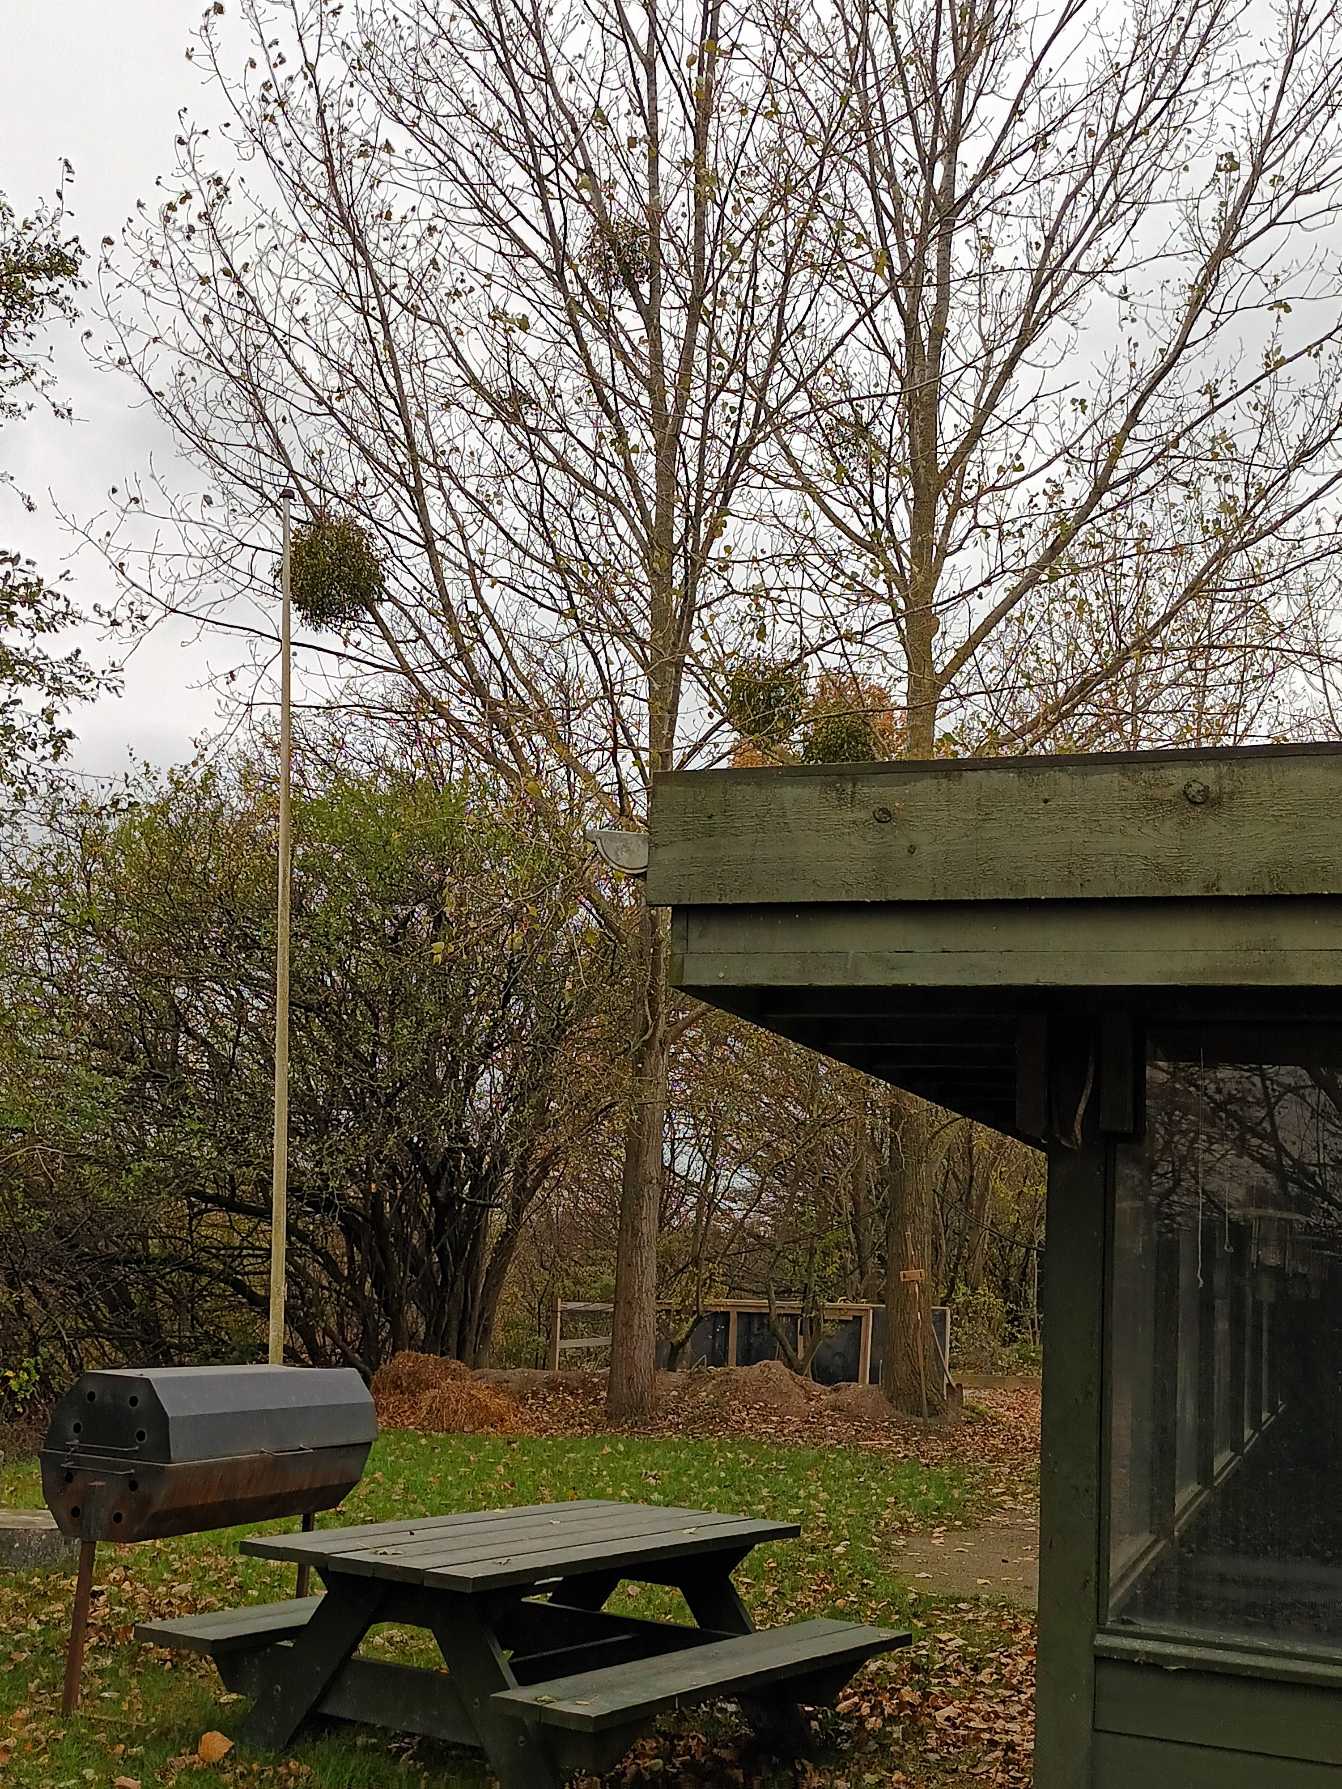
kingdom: Plantae
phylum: Tracheophyta
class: Magnoliopsida
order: Santalales
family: Viscaceae
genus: Viscum
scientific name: Viscum album
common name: Mistelten
